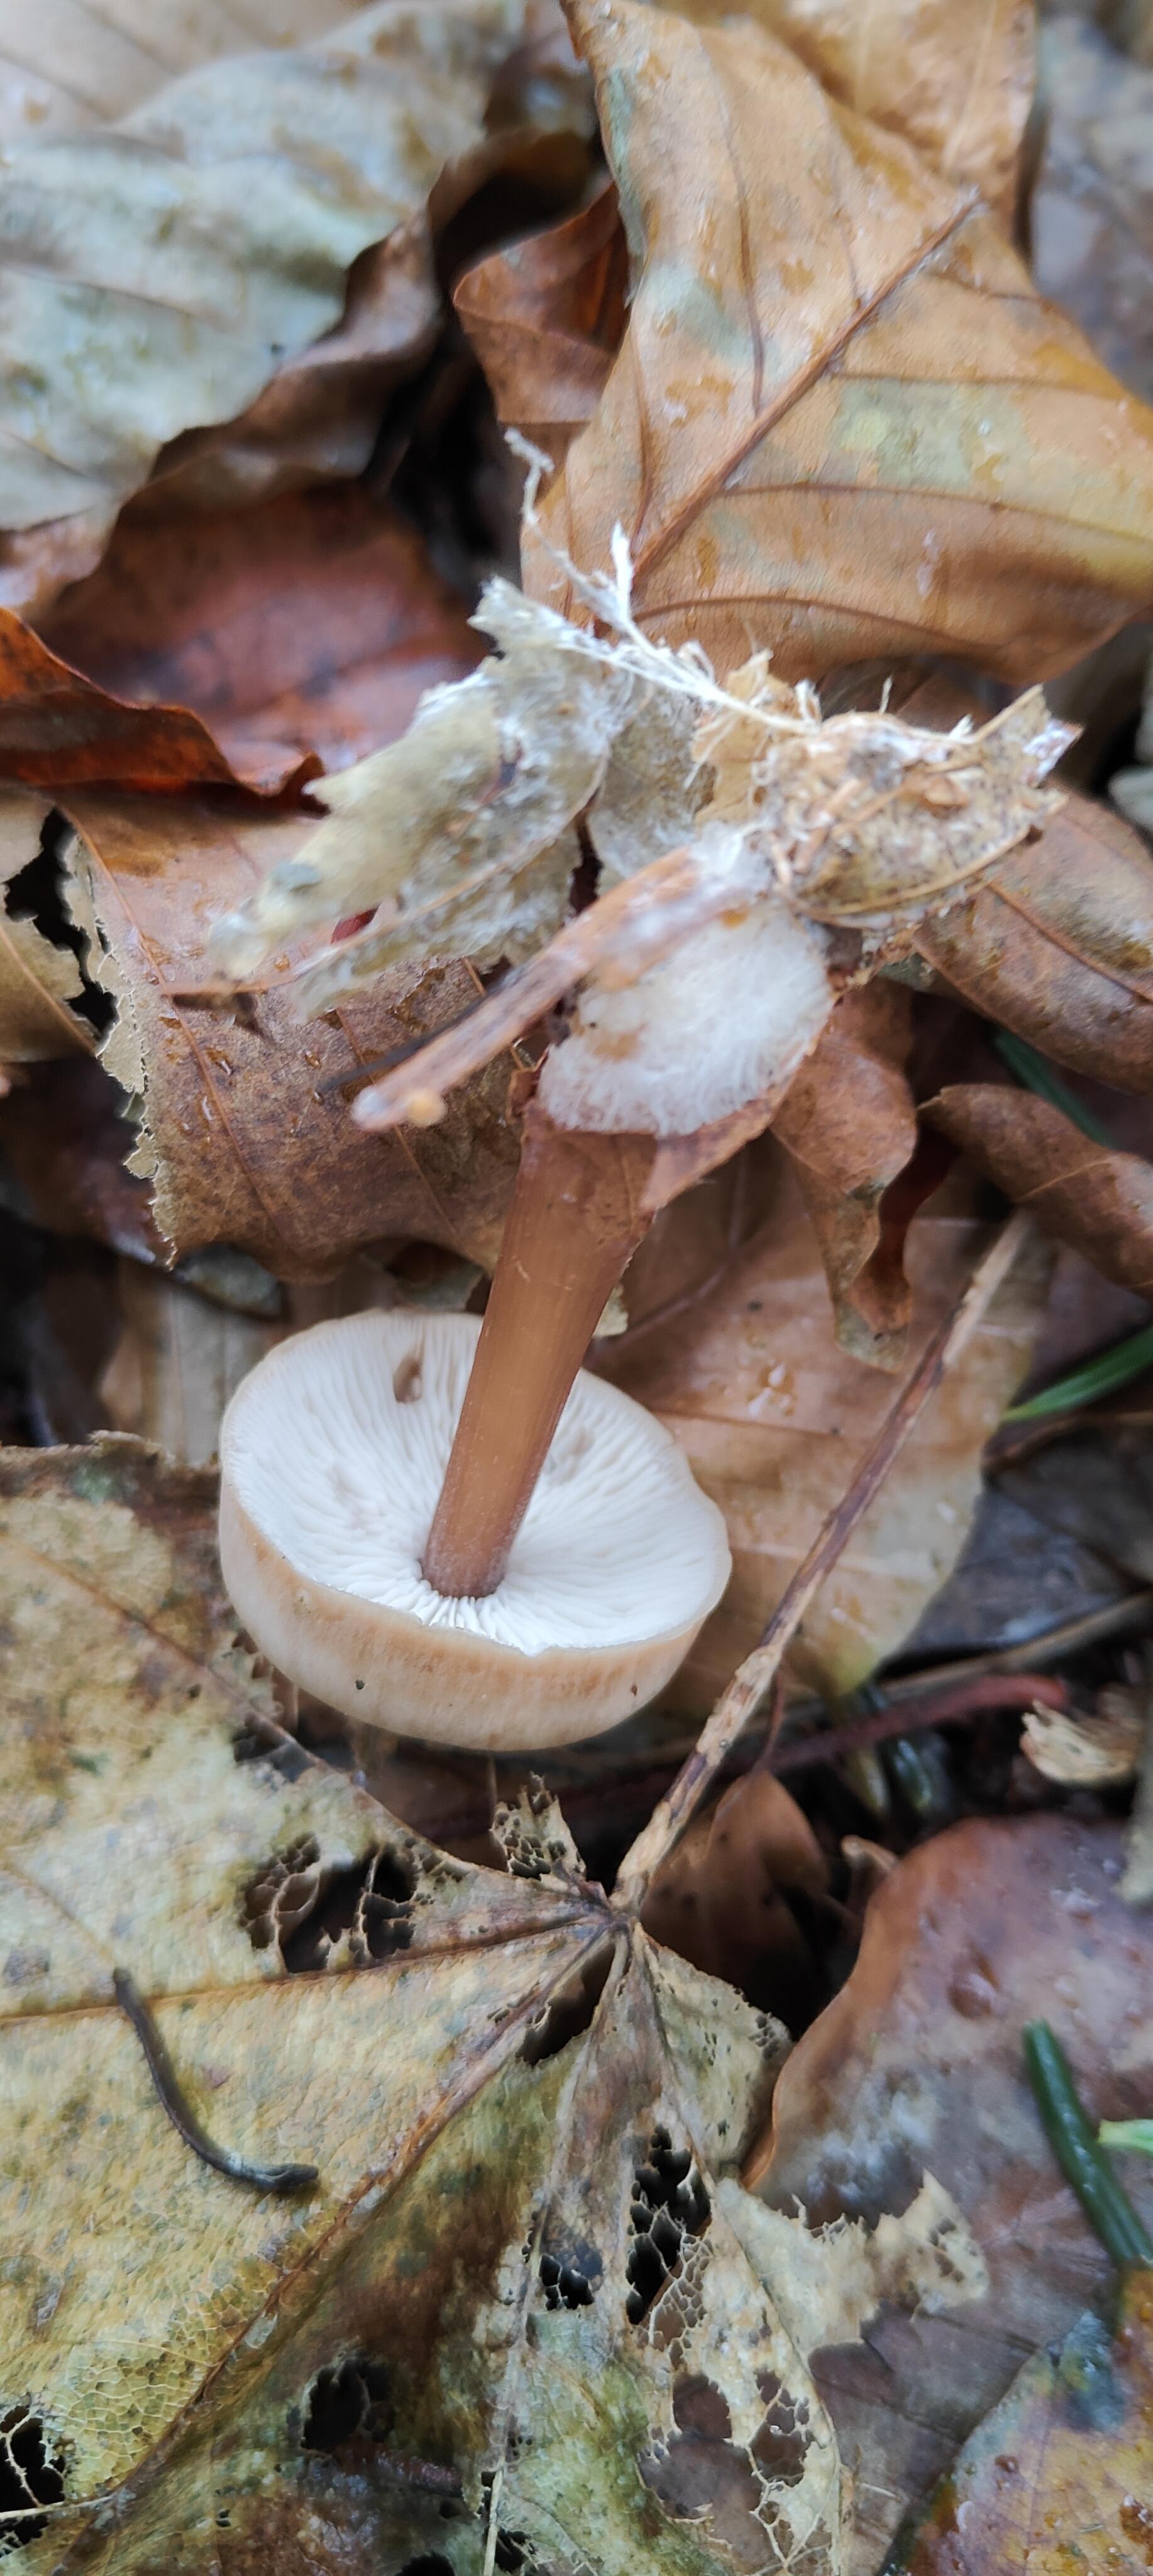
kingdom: Fungi
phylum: Basidiomycota
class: Agaricomycetes
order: Agaricales
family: Omphalotaceae
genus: Rhodocollybia
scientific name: Rhodocollybia asema
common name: horngrå fladhat
